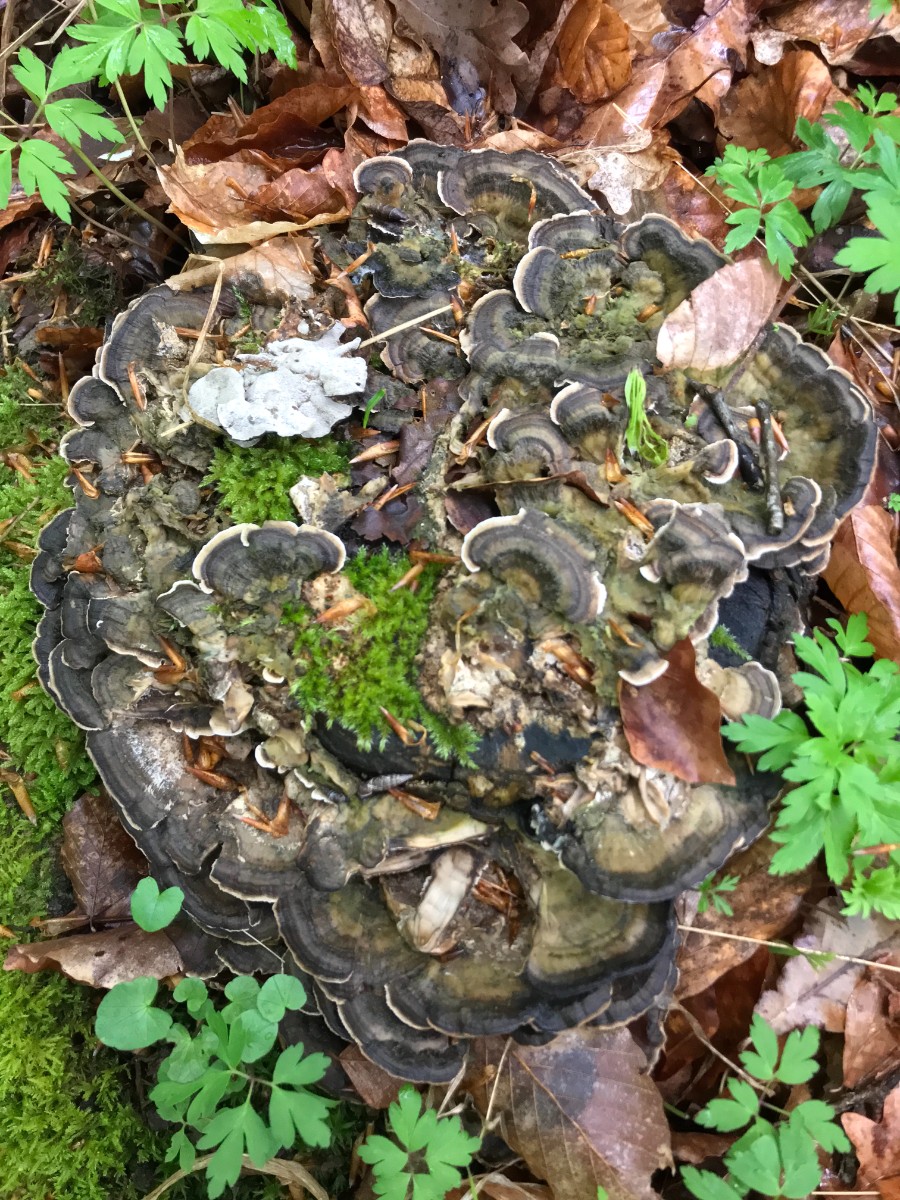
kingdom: Fungi
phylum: Basidiomycota
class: Agaricomycetes
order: Polyporales
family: Phanerochaetaceae
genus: Bjerkandera
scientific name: Bjerkandera adusta
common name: sveden sodporesvamp
